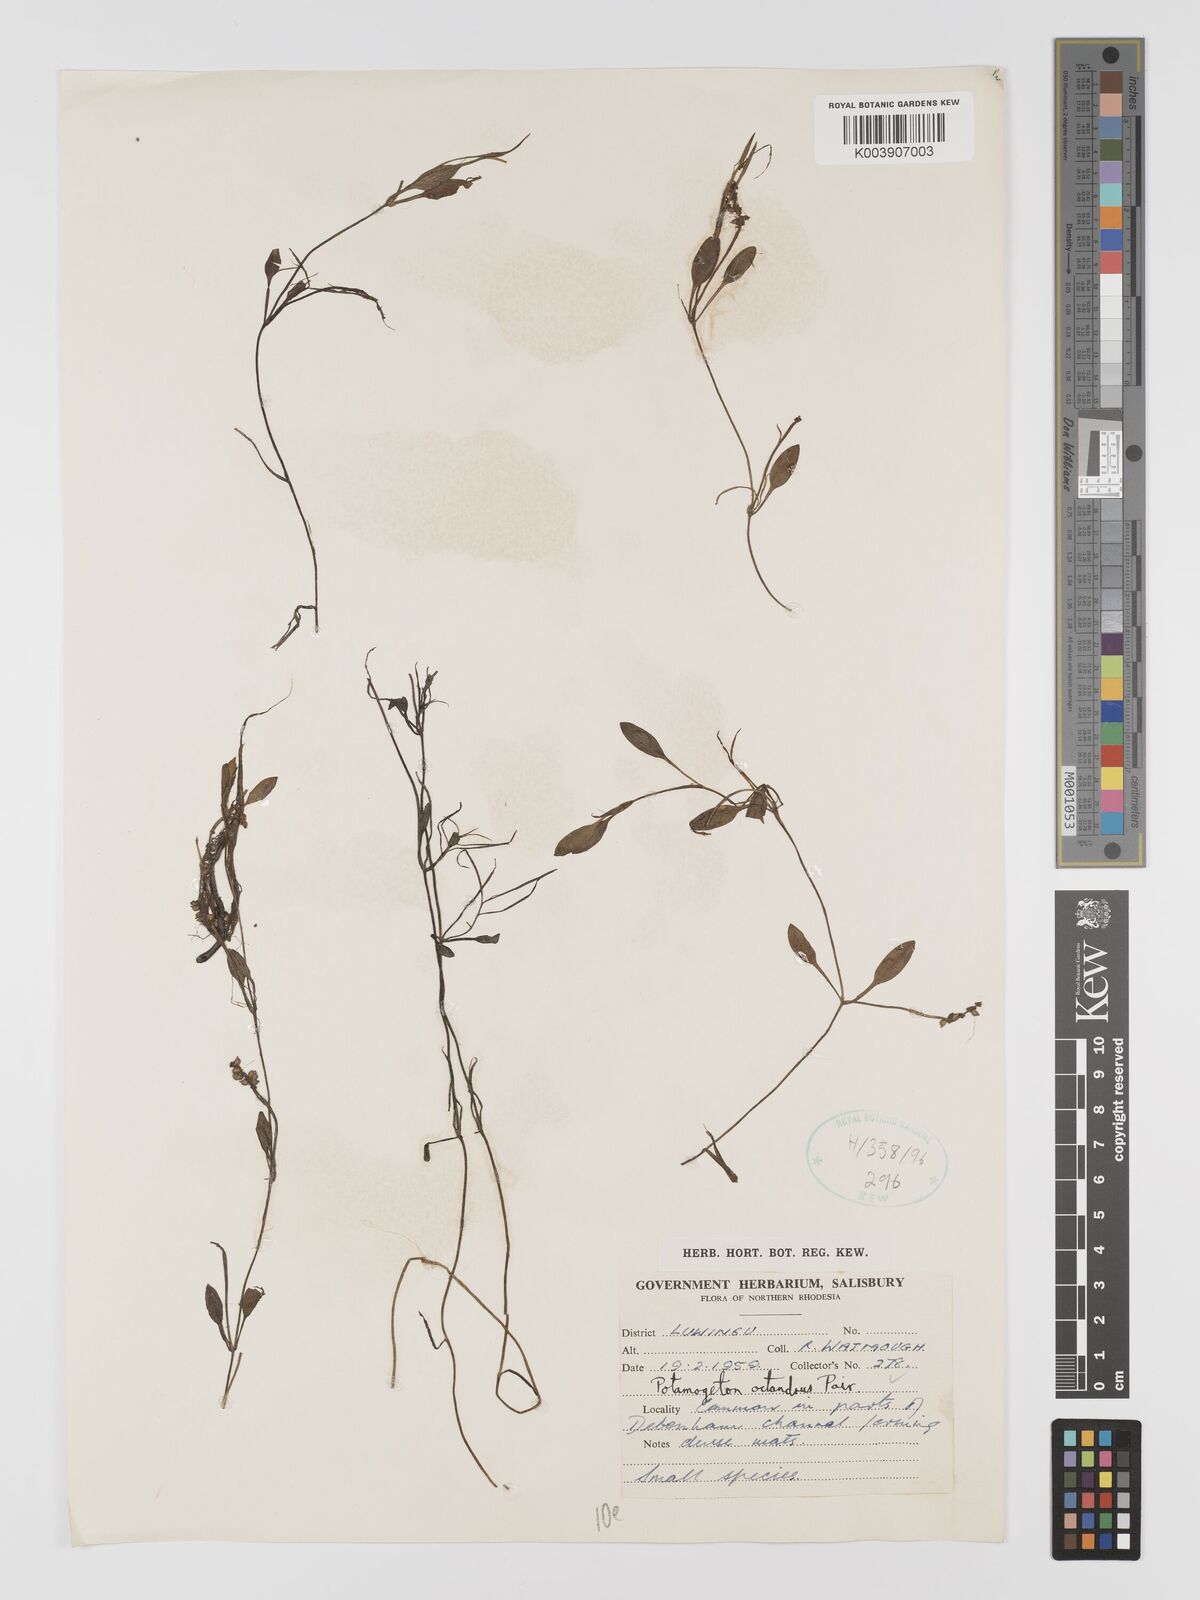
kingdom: Plantae
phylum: Tracheophyta
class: Liliopsida
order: Alismatales
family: Potamogetonaceae
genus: Potamogeton
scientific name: Potamogeton octandrus
